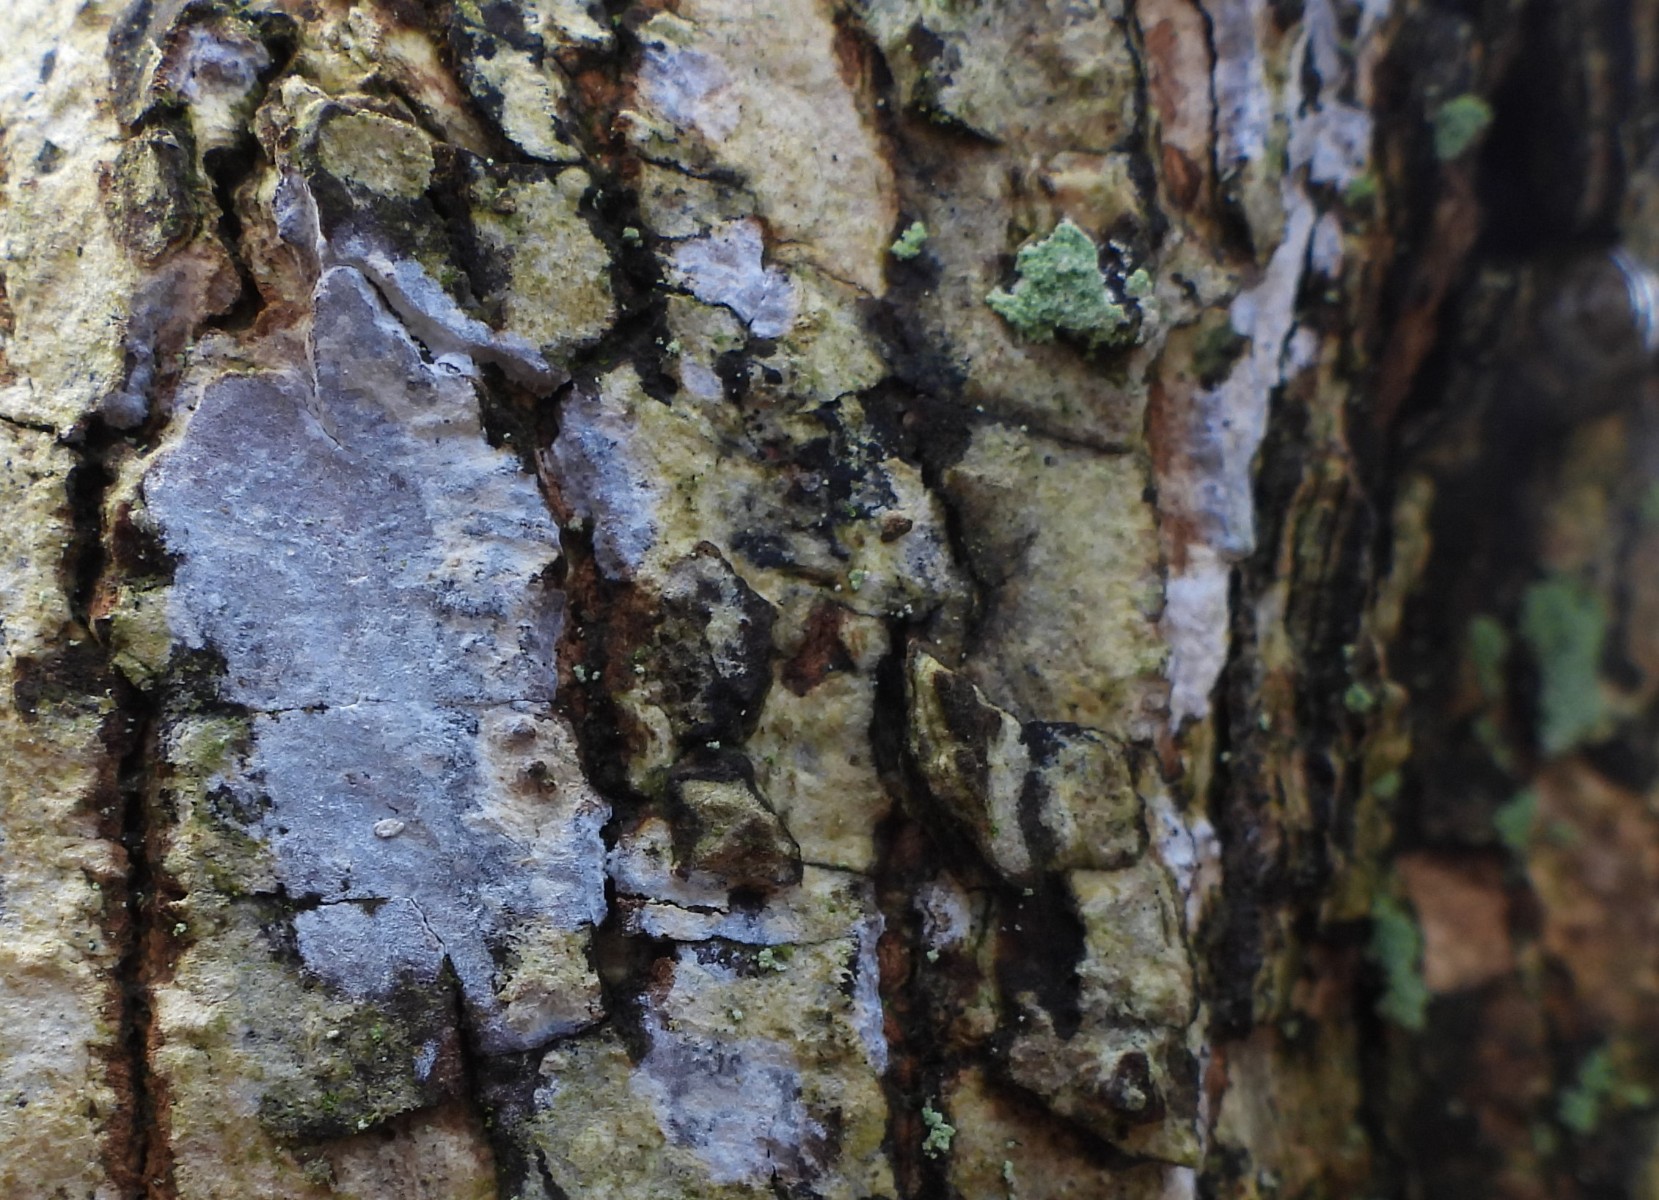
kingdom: Fungi
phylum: Basidiomycota
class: Agaricomycetes
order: Agaricales
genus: Dendrothele
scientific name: Dendrothele acerina
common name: navr-kalkplet
